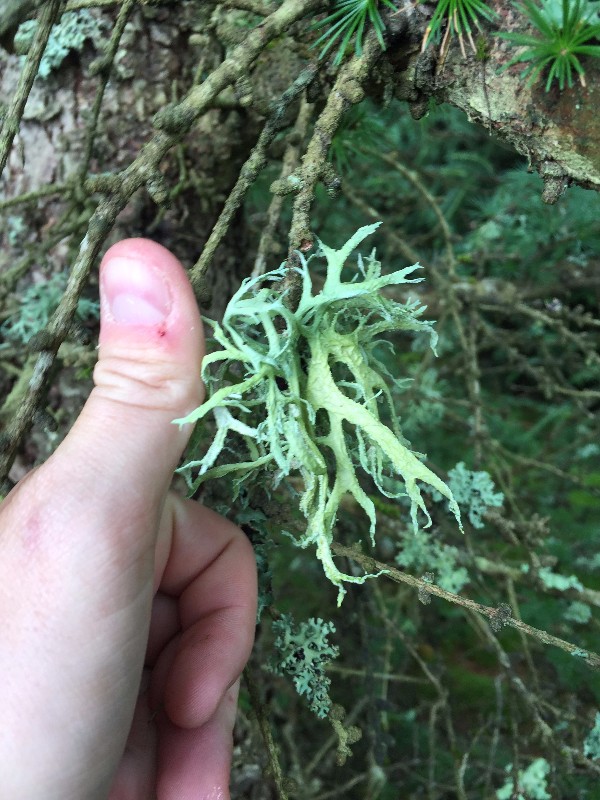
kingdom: Fungi
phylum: Ascomycota
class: Lecanoromycetes
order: Lecanorales
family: Parmeliaceae
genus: Evernia
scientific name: Evernia prunastri
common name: almindelig slåenlav
